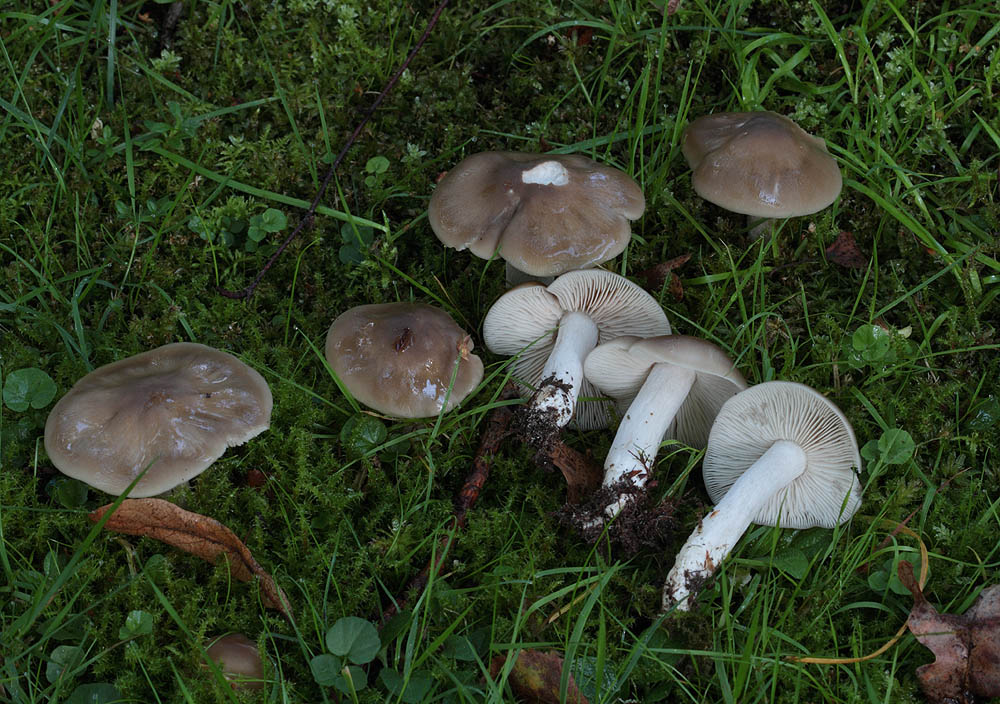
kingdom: Fungi
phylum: Basidiomycota
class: Agaricomycetes
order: Agaricales
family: Entolomataceae
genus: Entoloma
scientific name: Entoloma lividoalbum
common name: lysstokket rødblad
